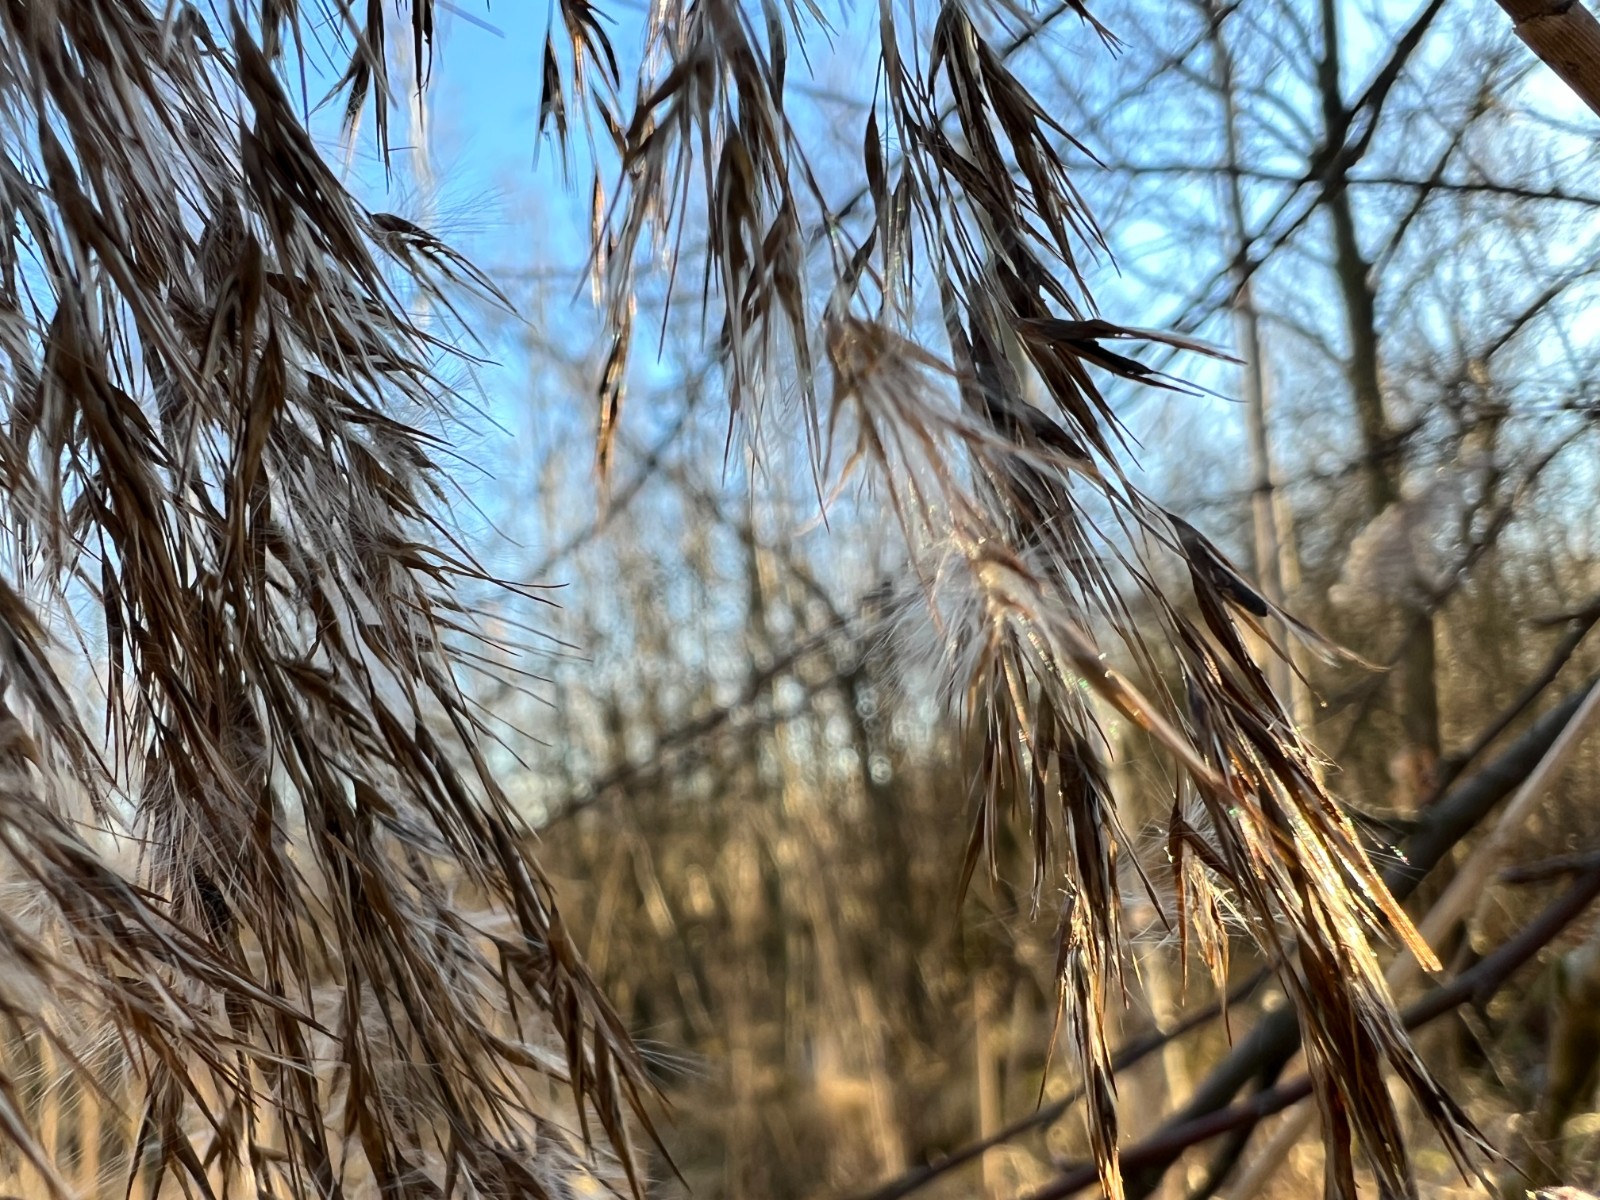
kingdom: Fungi
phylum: Ascomycota
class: Sordariomycetes
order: Hypocreales
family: Clavicipitaceae
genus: Claviceps
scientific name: Claviceps arundinis
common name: tagrør-meldrøjer
